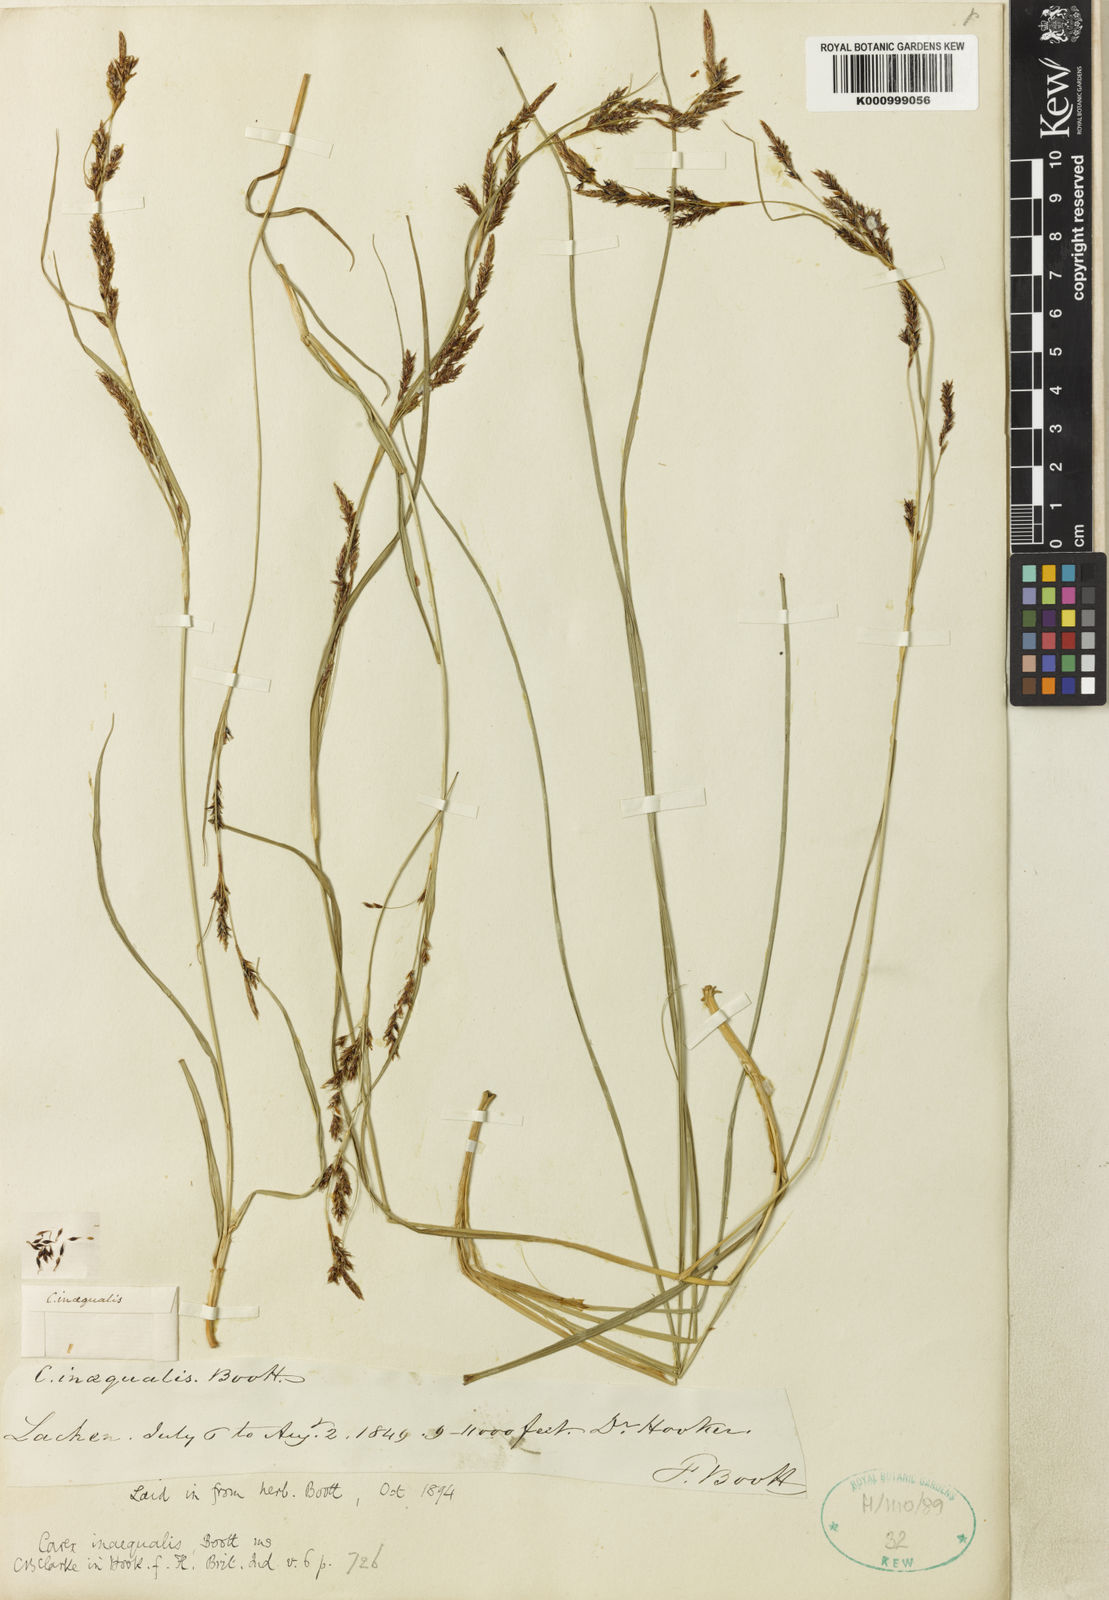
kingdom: Plantae
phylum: Tracheophyta
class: Liliopsida
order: Poales
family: Cyperaceae
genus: Carex
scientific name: Carex anomoea
